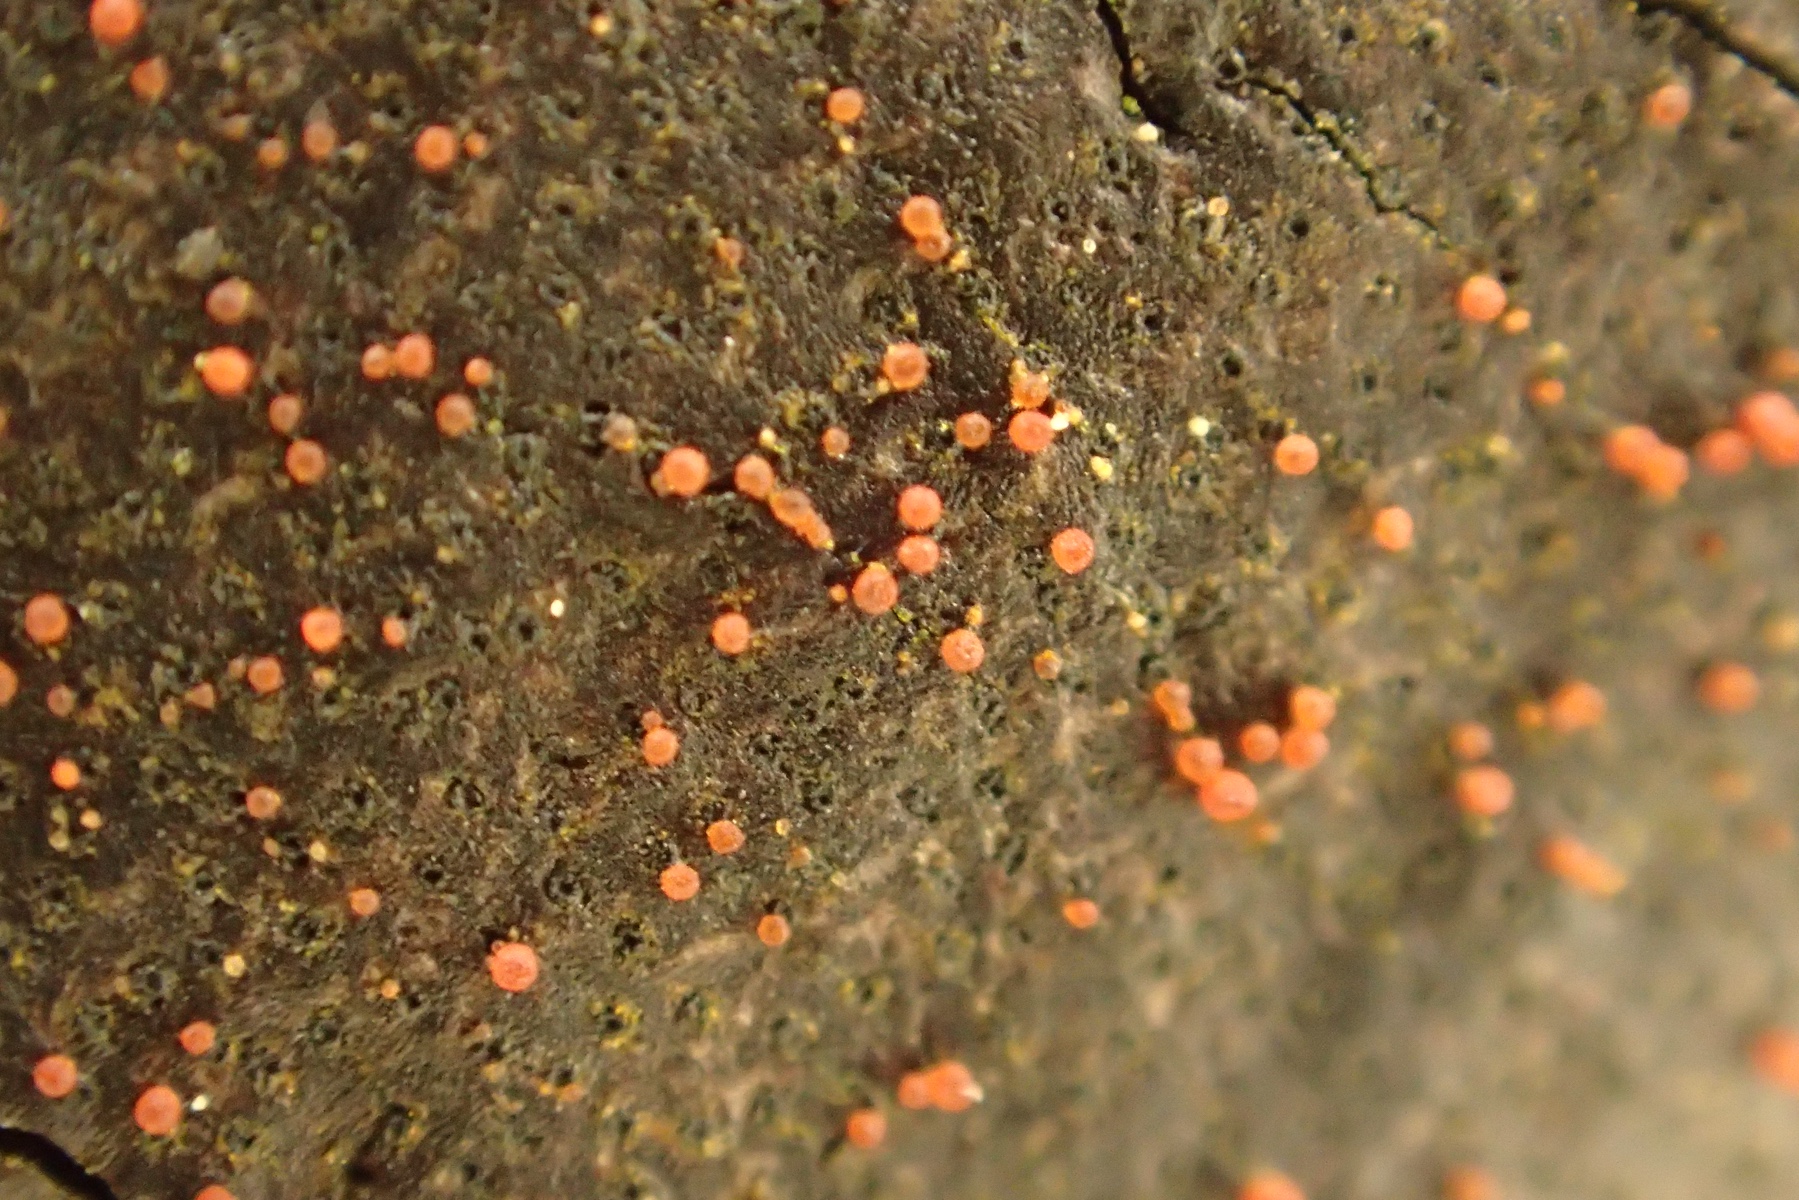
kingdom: Fungi
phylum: Ascomycota
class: Sordariomycetes
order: Hypocreales
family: Nectriaceae
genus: Dialonectria
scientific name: Dialonectria episphaeria
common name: kulskorpe-cinnobersvamp
